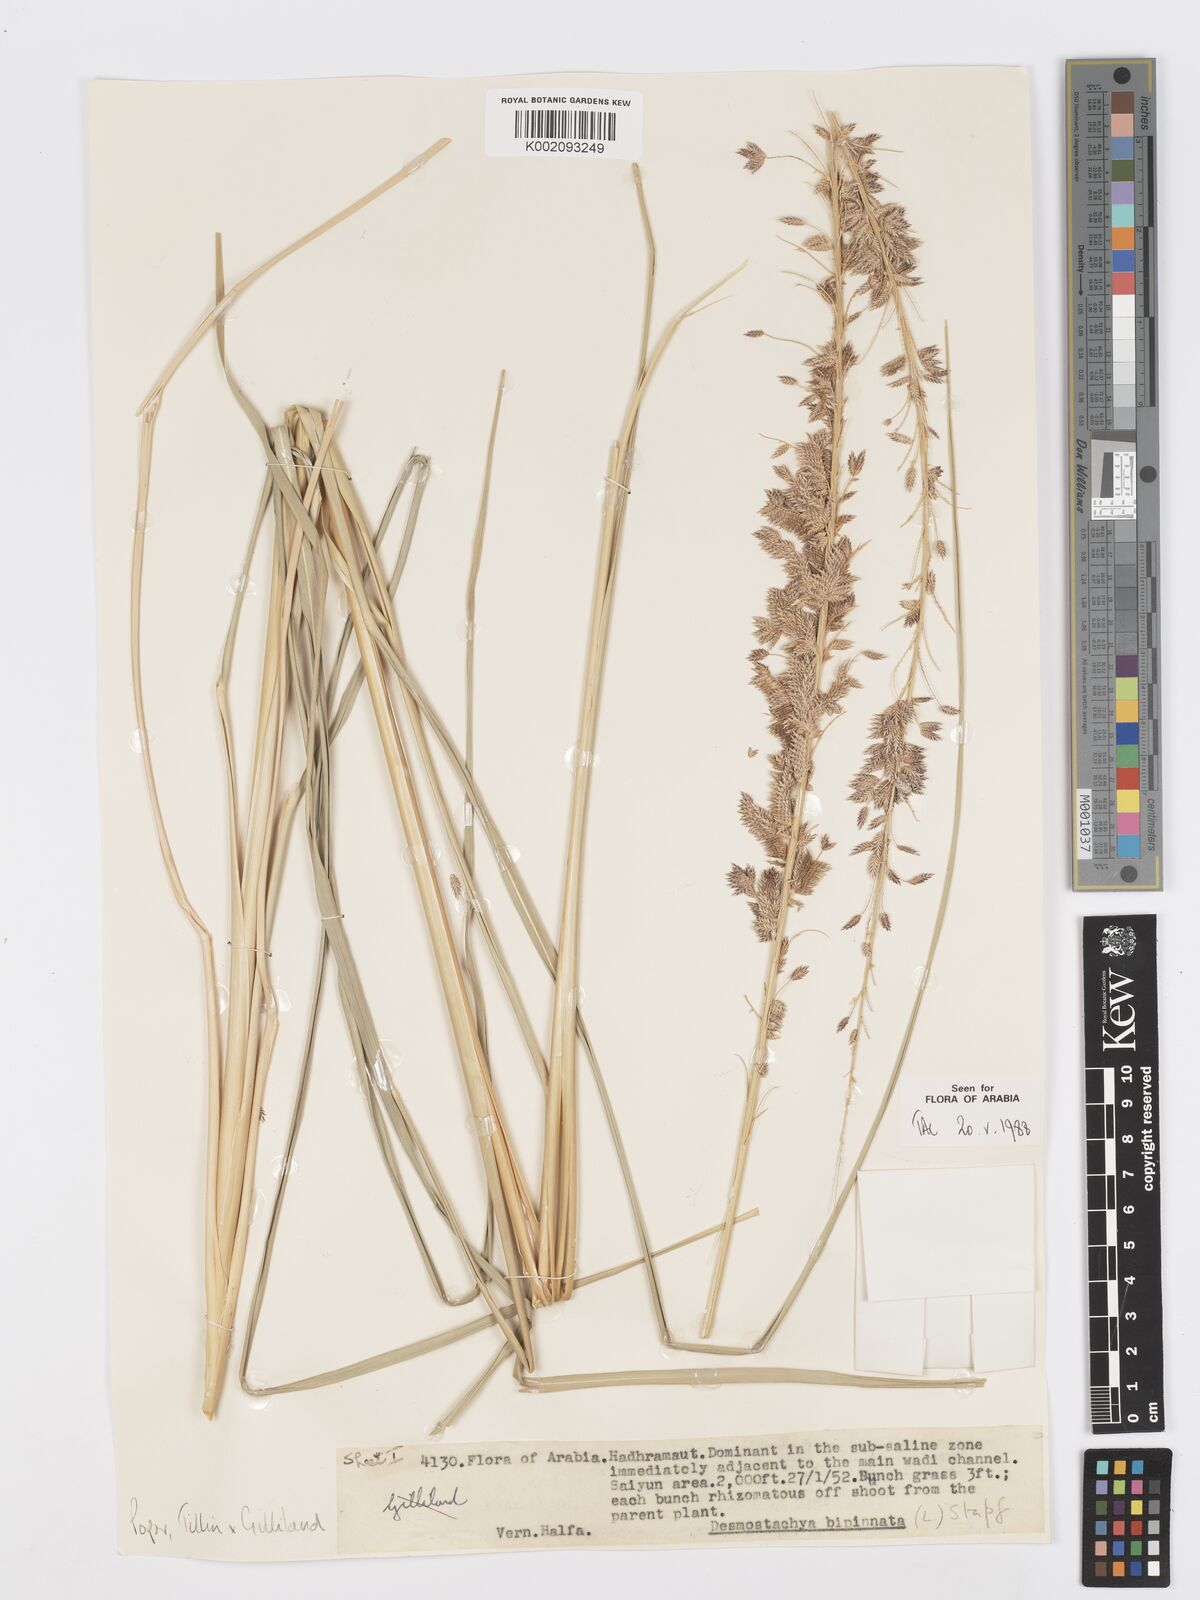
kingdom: Plantae
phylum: Tracheophyta
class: Liliopsida
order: Poales
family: Poaceae
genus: Desmostachya
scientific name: Desmostachya bipinnata
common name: Crowfoot grass
